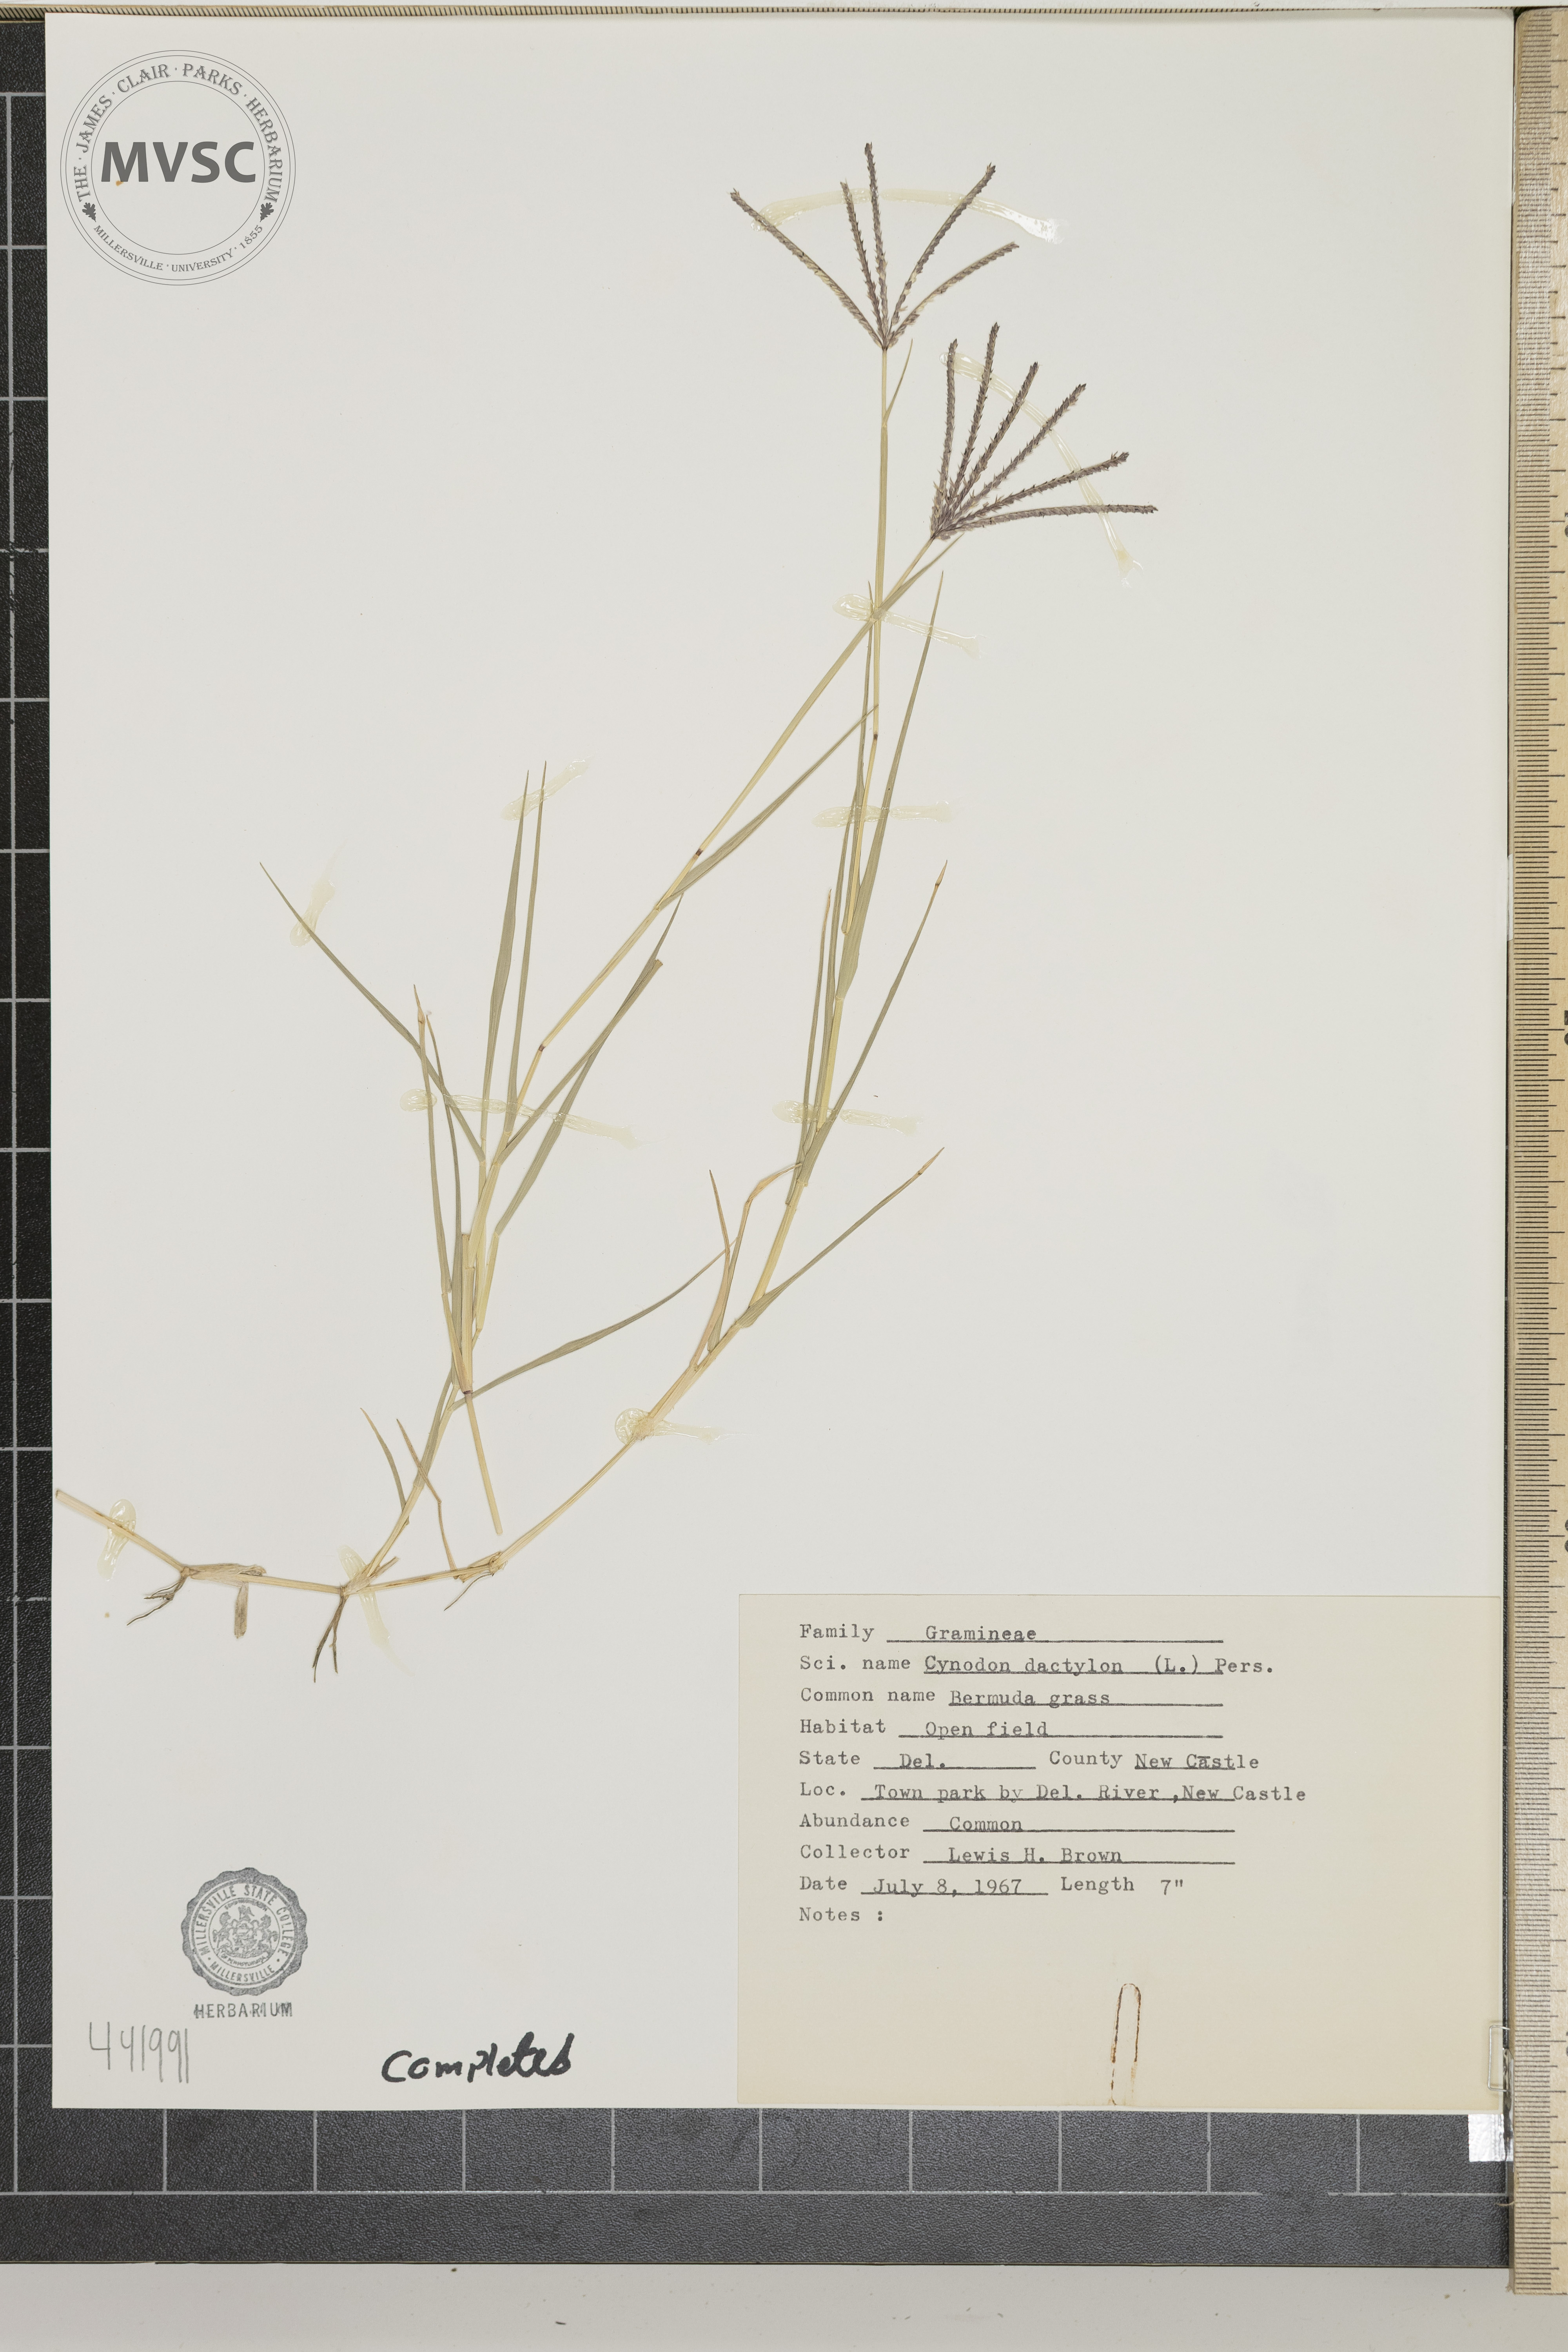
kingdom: Plantae
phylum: Tracheophyta
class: Liliopsida
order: Poales
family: Poaceae
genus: Cynodon
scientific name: Cynodon dactylon
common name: Bermuda grass
